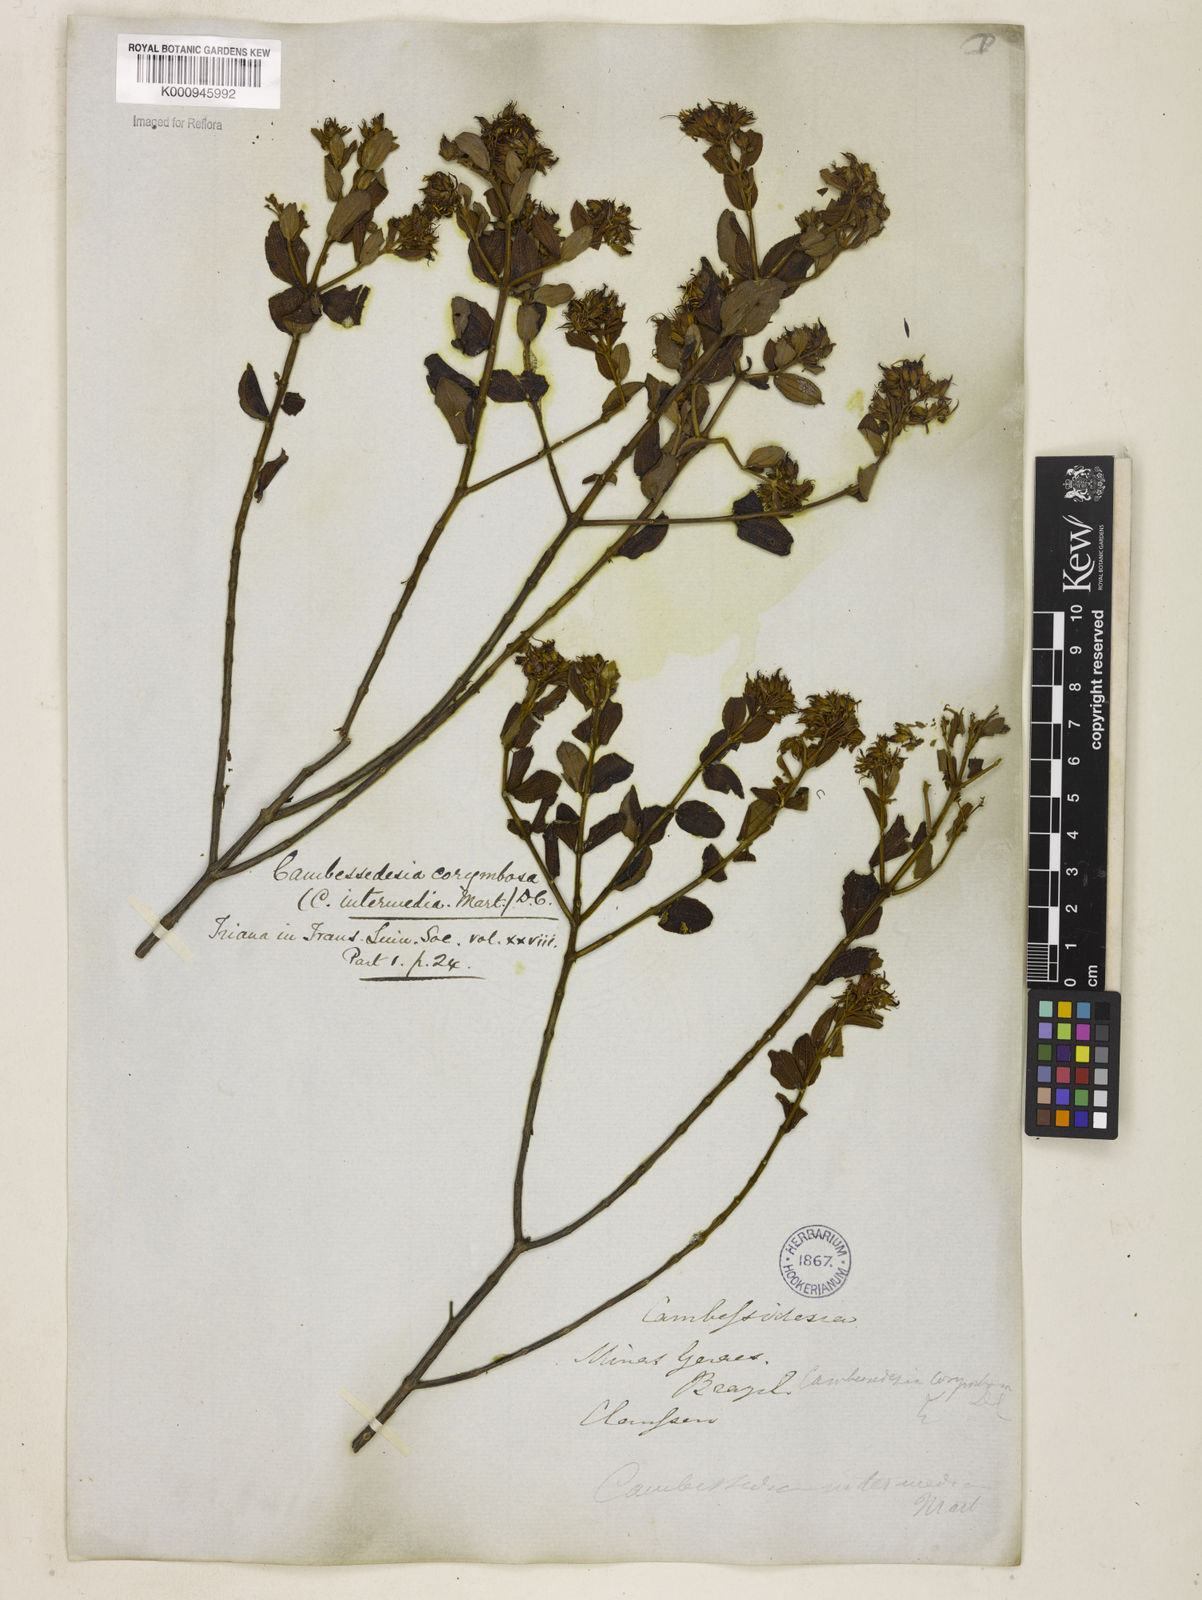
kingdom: Plantae
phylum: Tracheophyta
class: Magnoliopsida
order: Myrtales
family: Melastomataceae
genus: Cambessedesia
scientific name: Cambessedesia corymbosa
